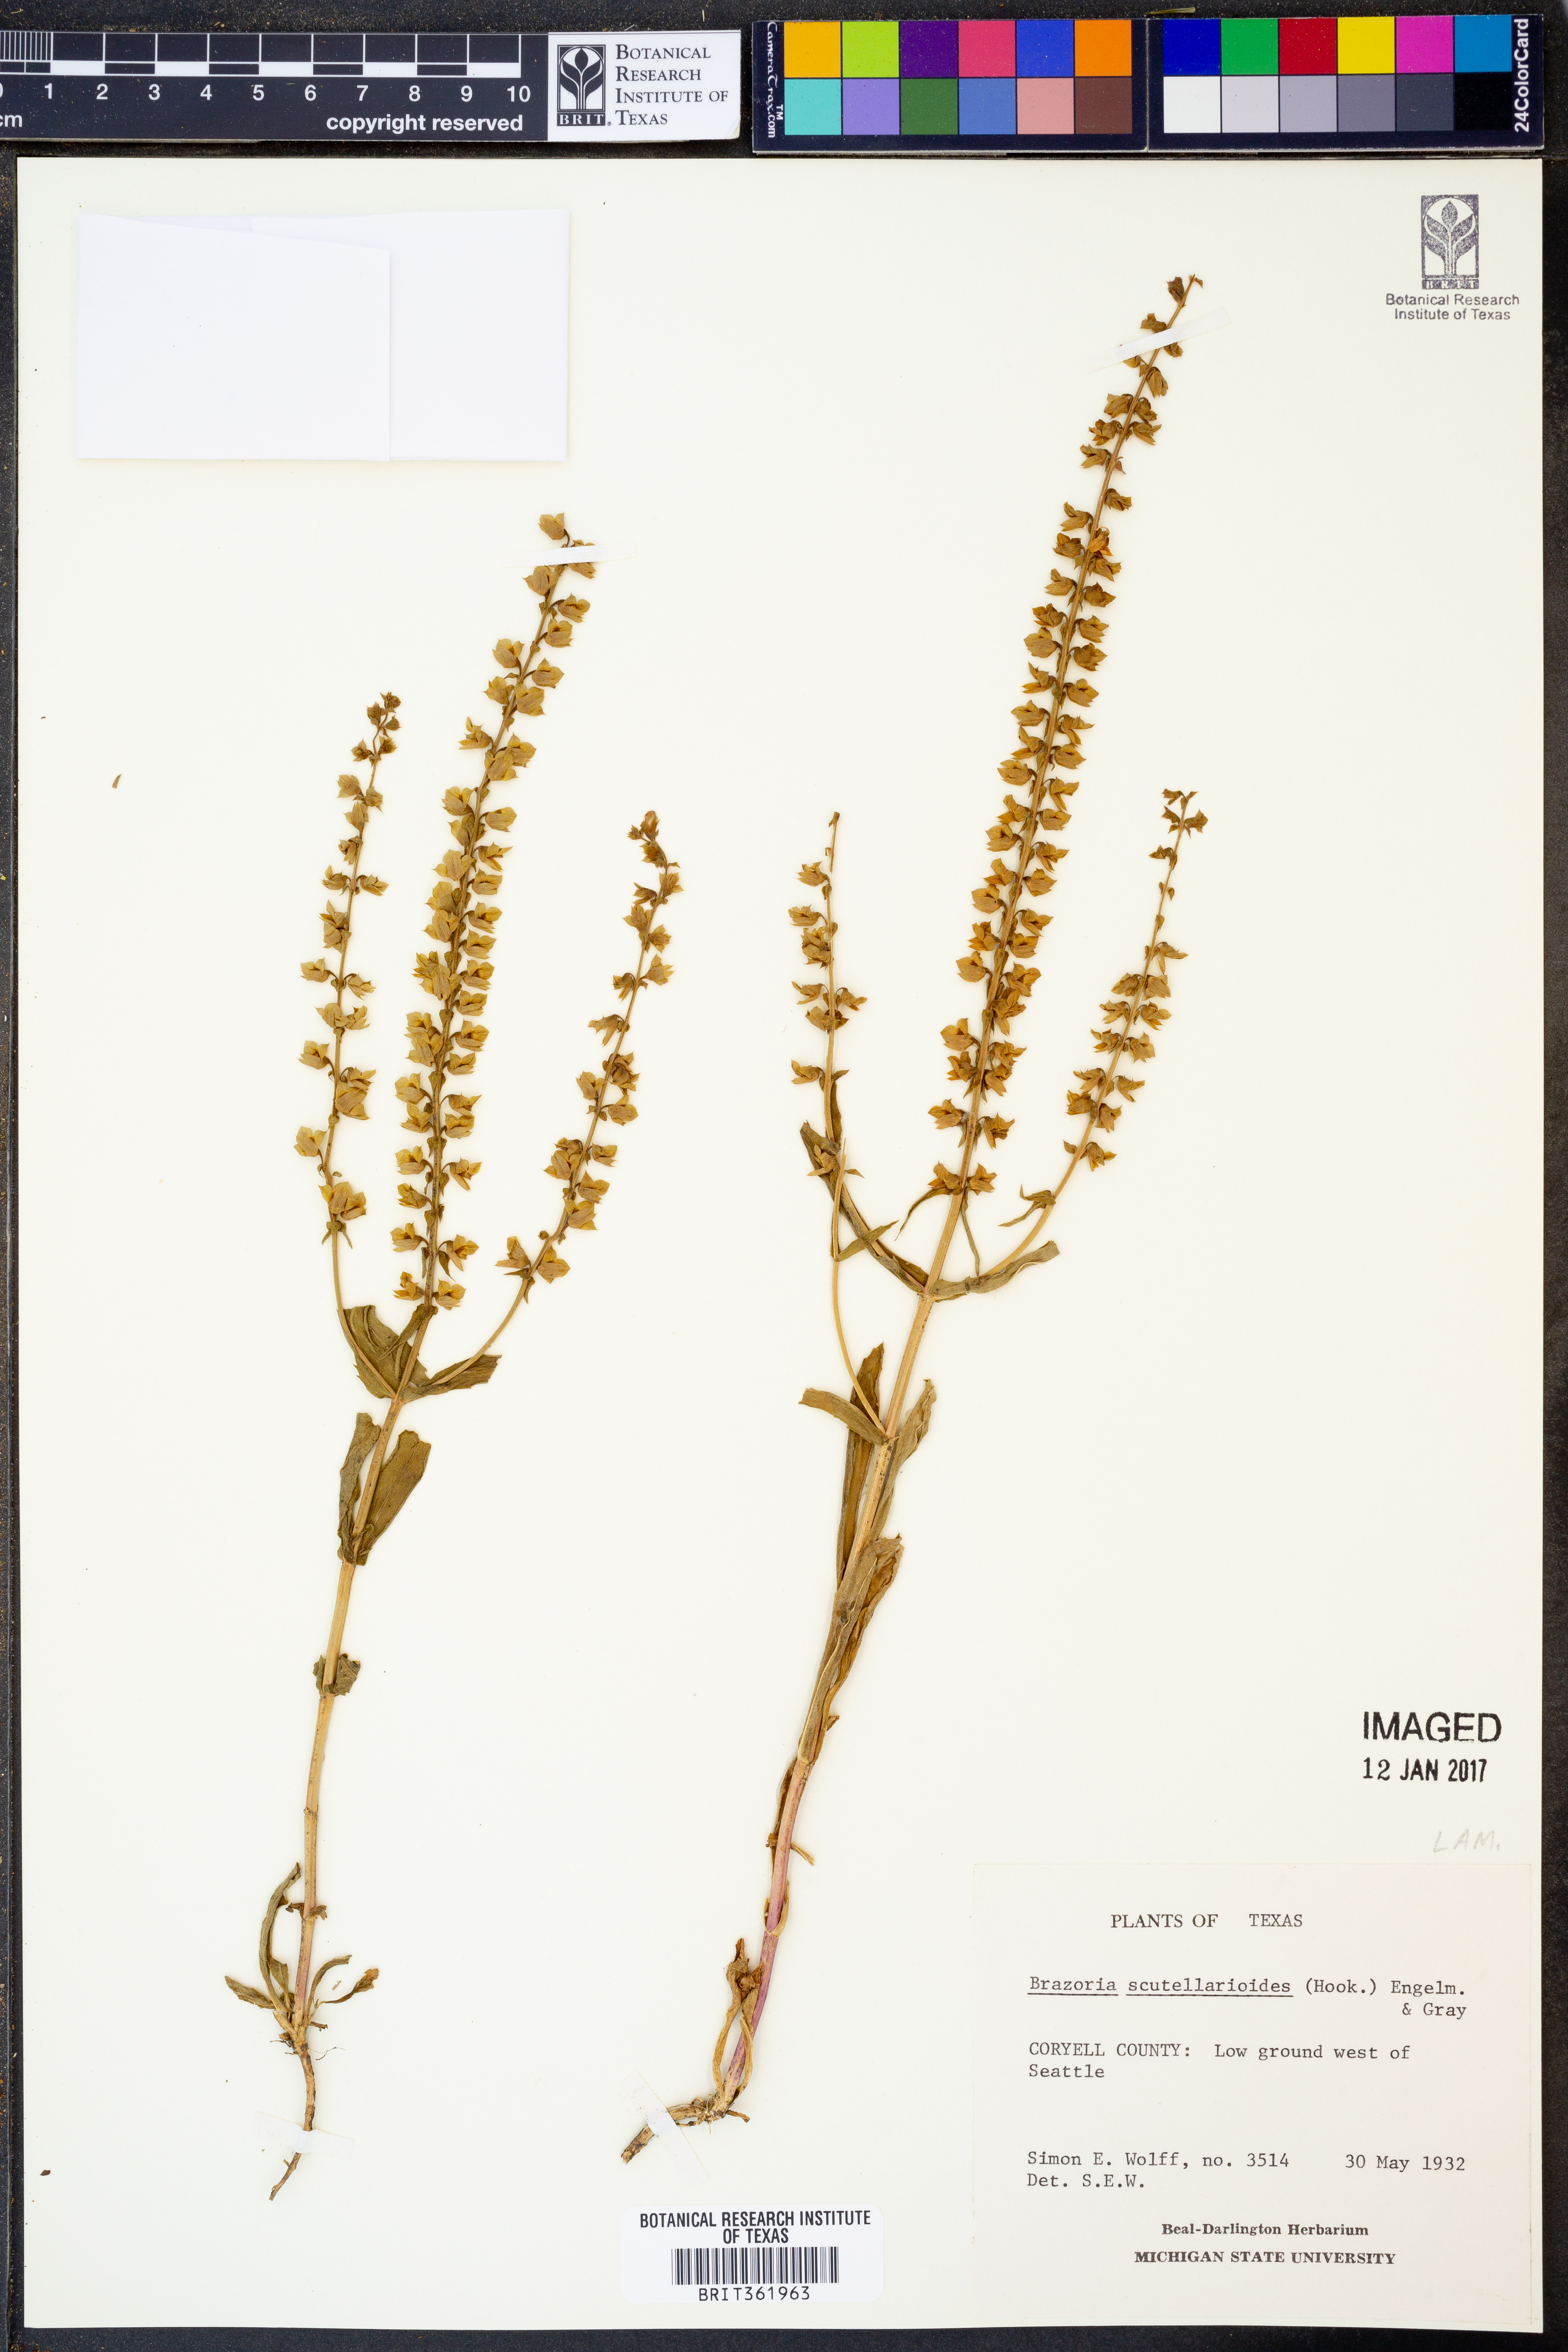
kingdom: Plantae
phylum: Tracheophyta
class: Magnoliopsida
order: Lamiales
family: Lamiaceae
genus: Warnockia
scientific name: Warnockia scutellarioides
